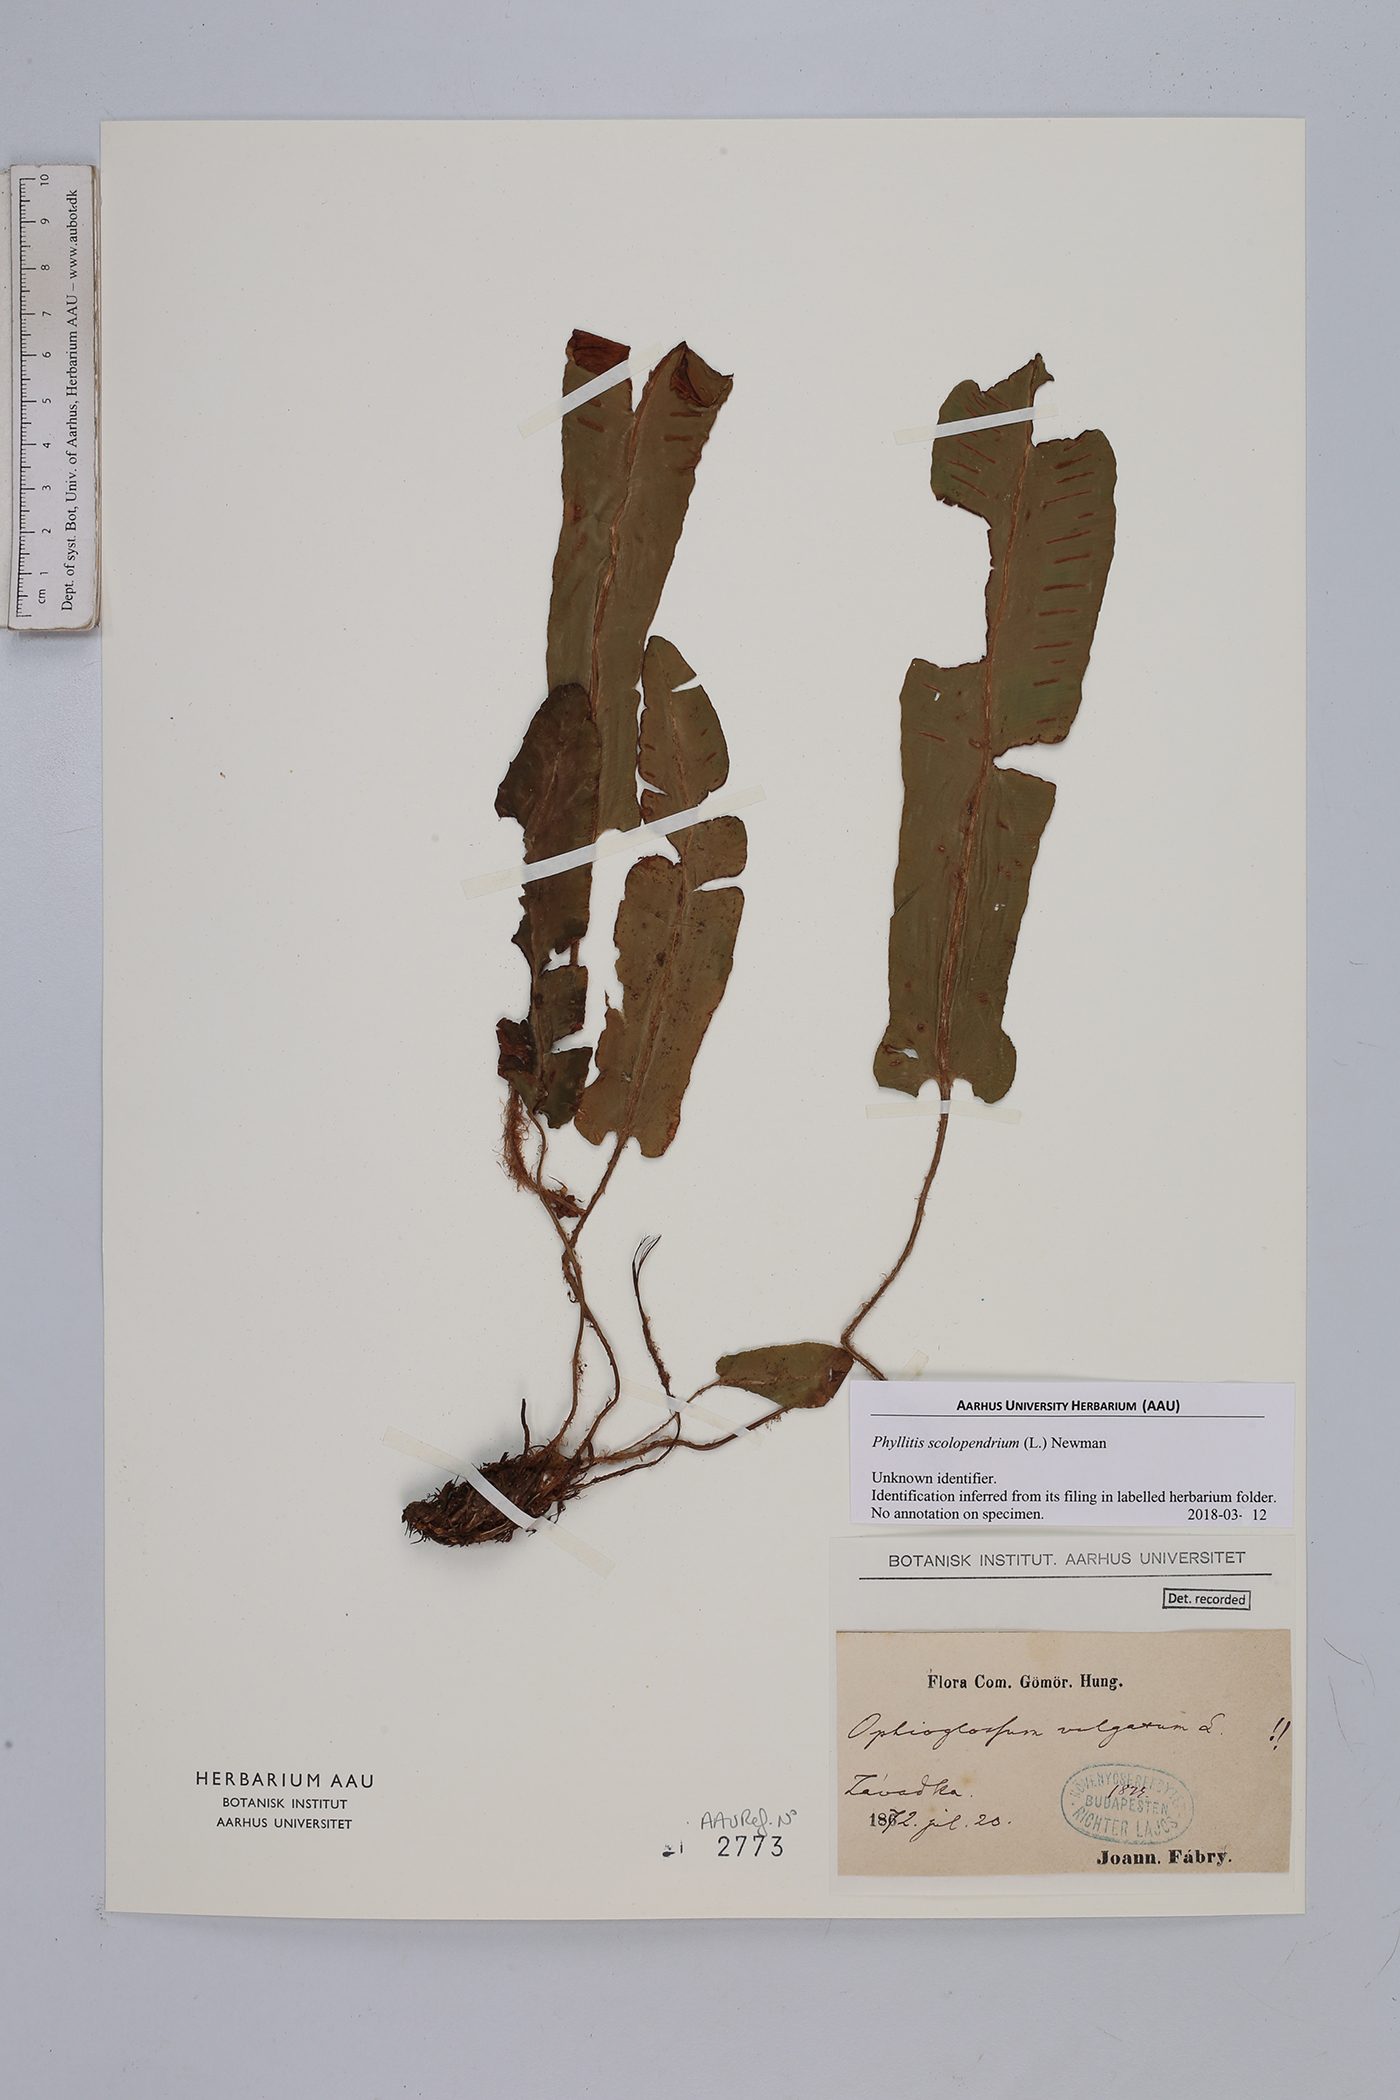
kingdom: Plantae
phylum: Tracheophyta
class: Polypodiopsida
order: Polypodiales
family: Aspleniaceae
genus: Asplenium
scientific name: Asplenium scolopendrium
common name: Hart's-tongue fern
